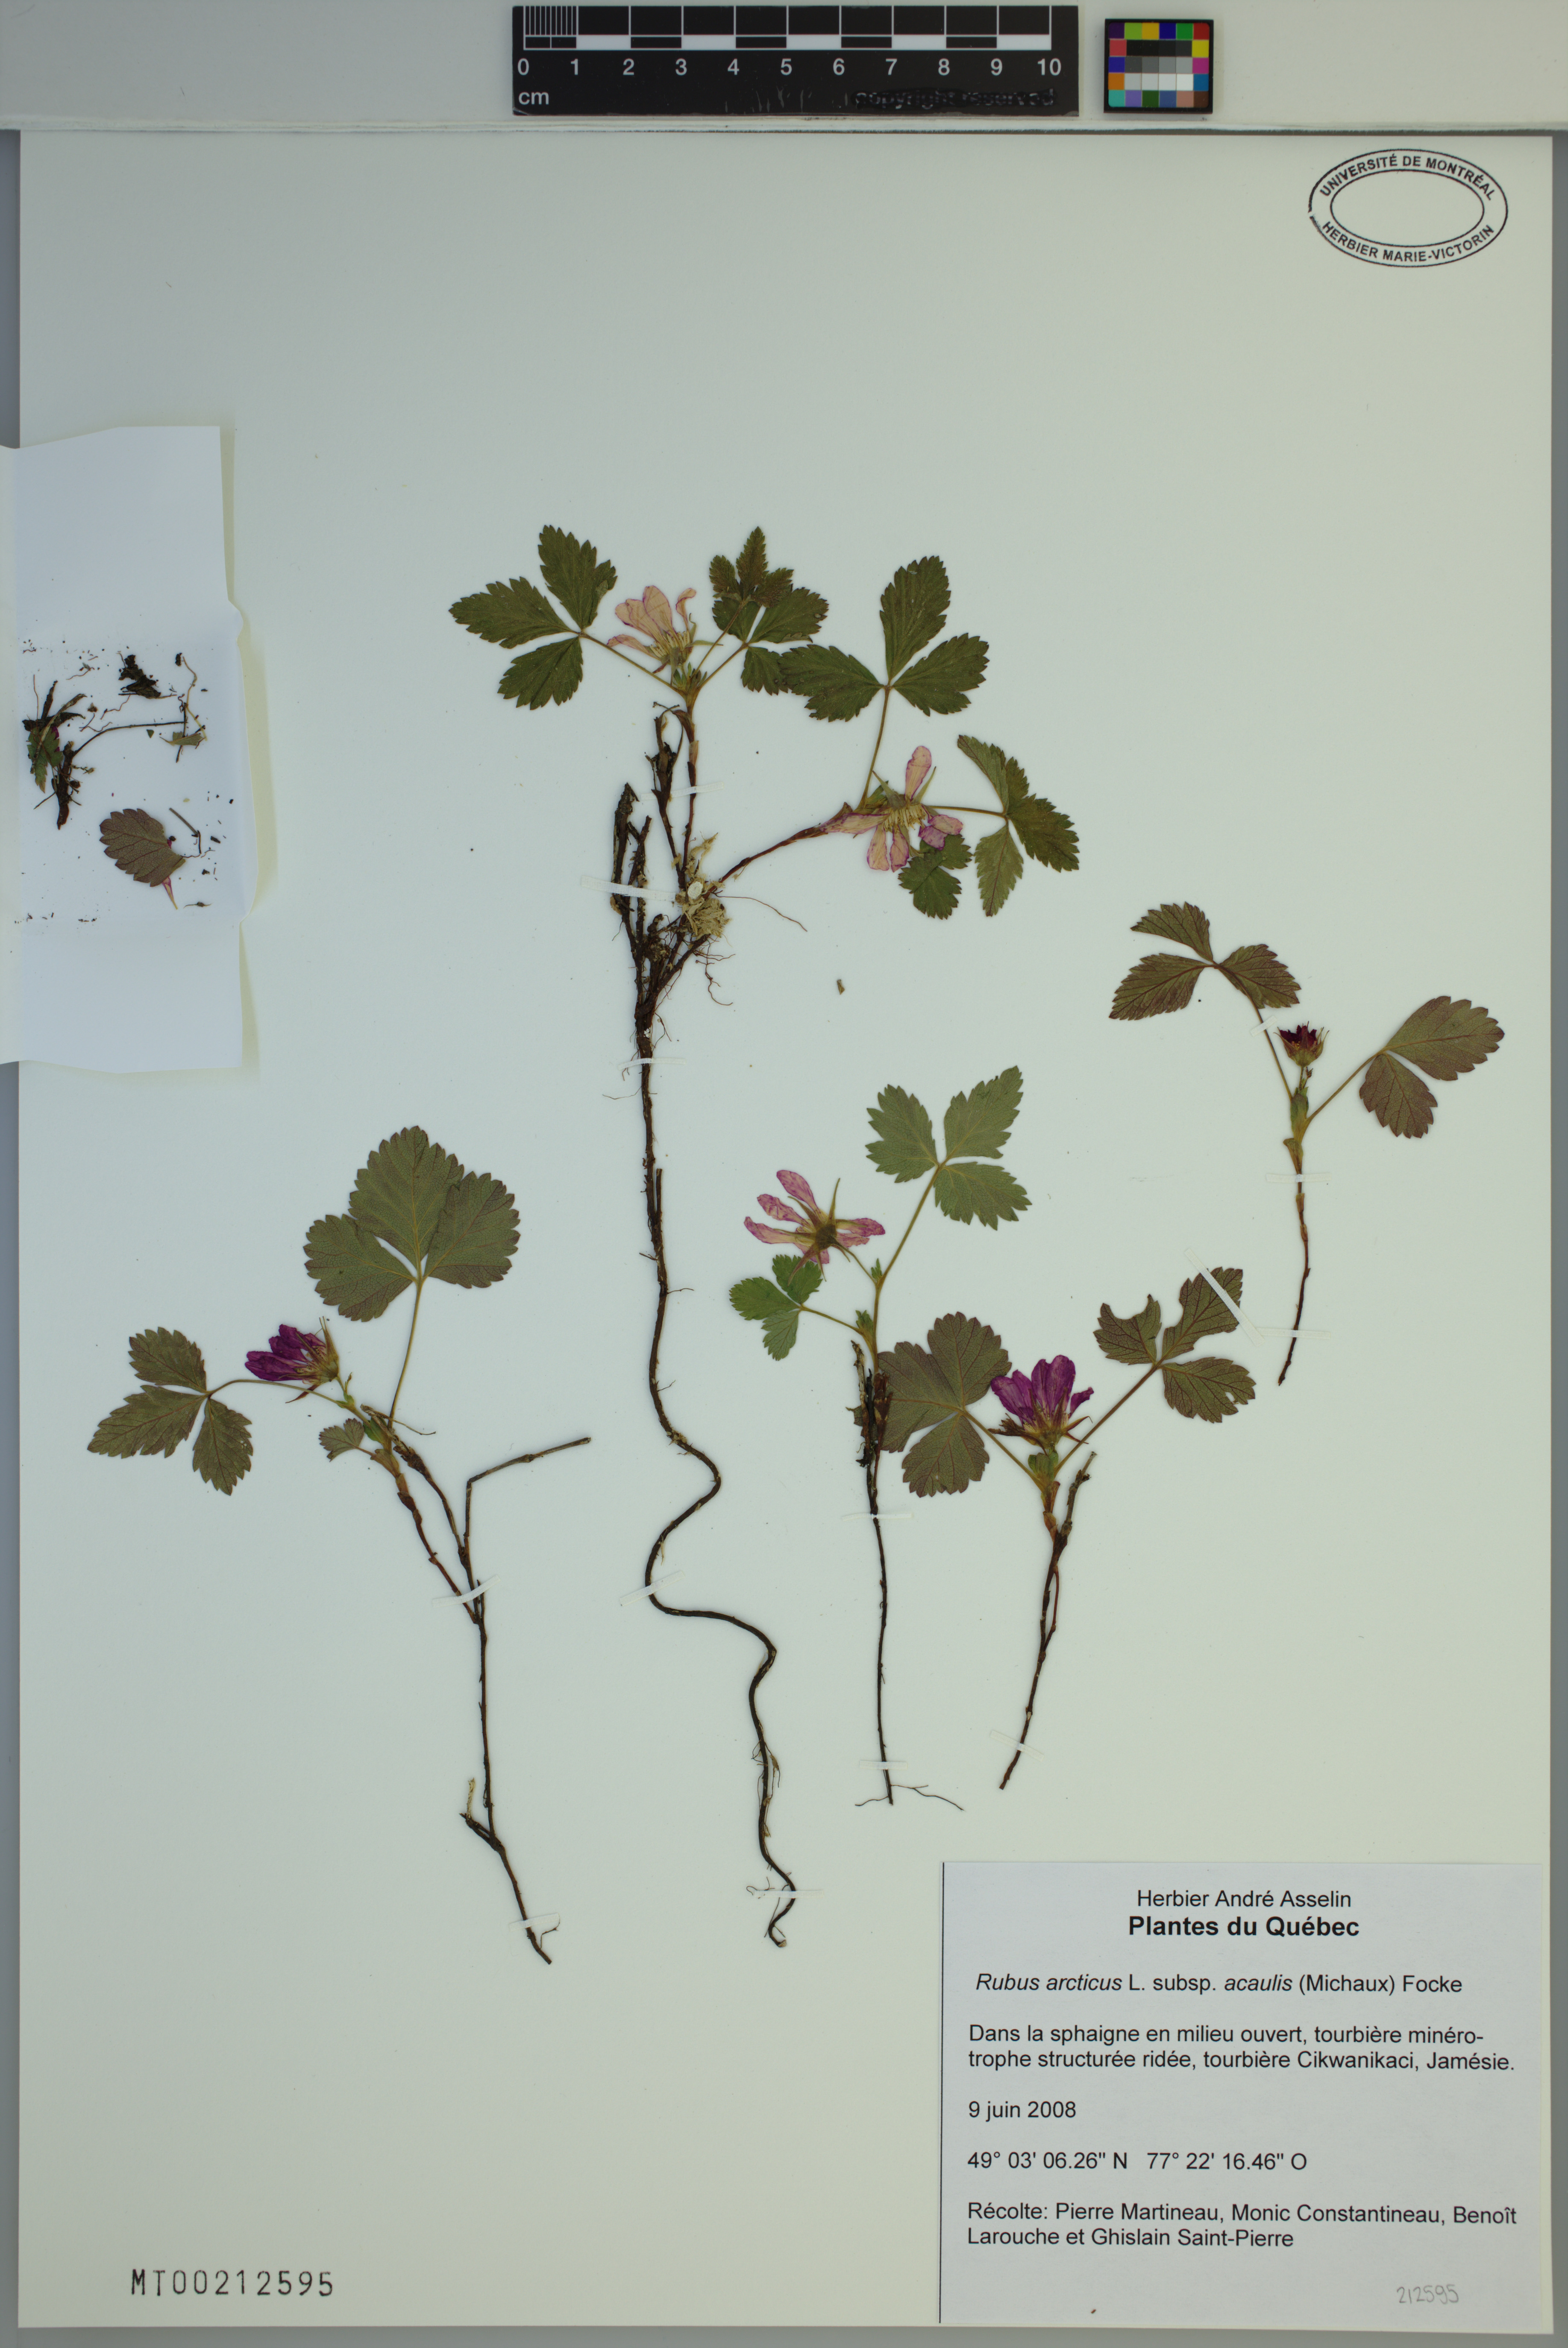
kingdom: Plantae
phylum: Tracheophyta
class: Magnoliopsida
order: Rosales
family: Rosaceae
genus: Rubus
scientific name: Rubus arcticus
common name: Arctic bramble
